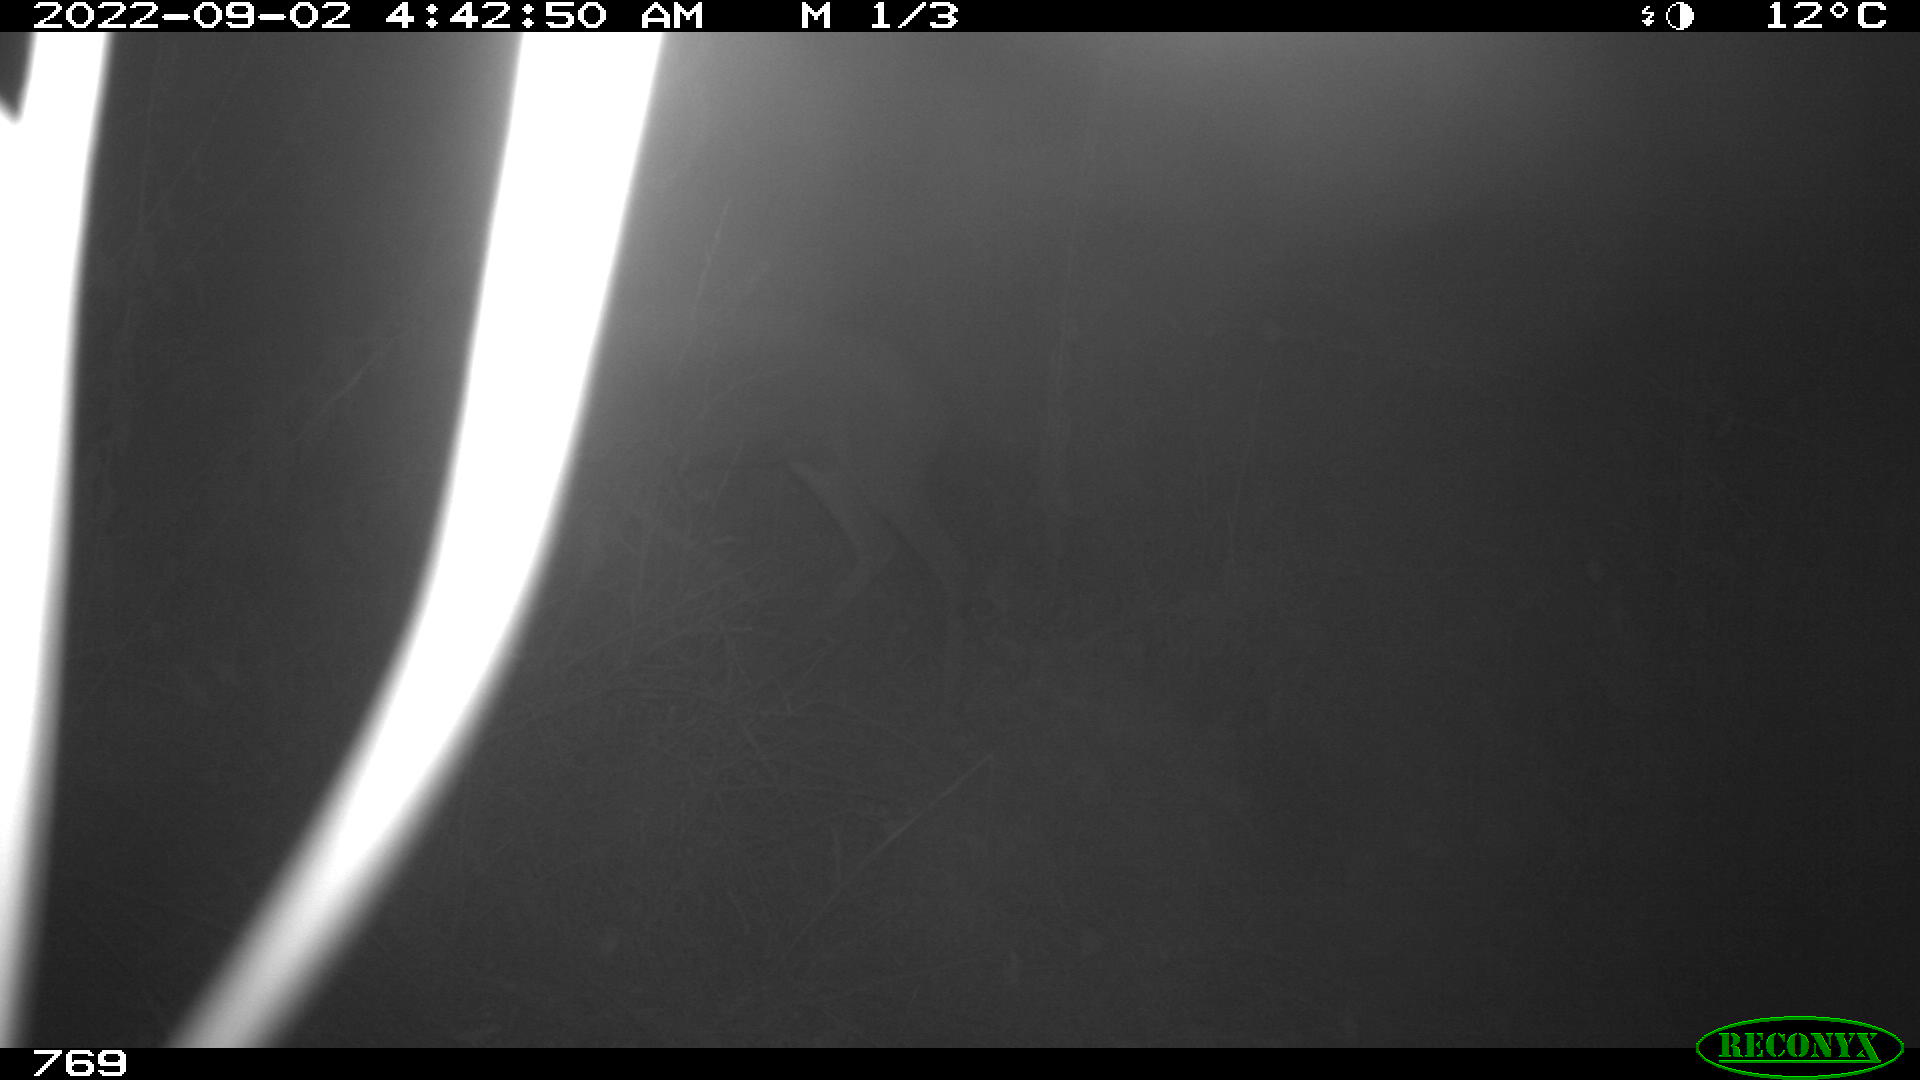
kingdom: Animalia
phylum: Chordata
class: Mammalia
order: Artiodactyla
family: Cervidae
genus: Capreolus
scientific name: Capreolus capreolus
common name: Western roe deer
